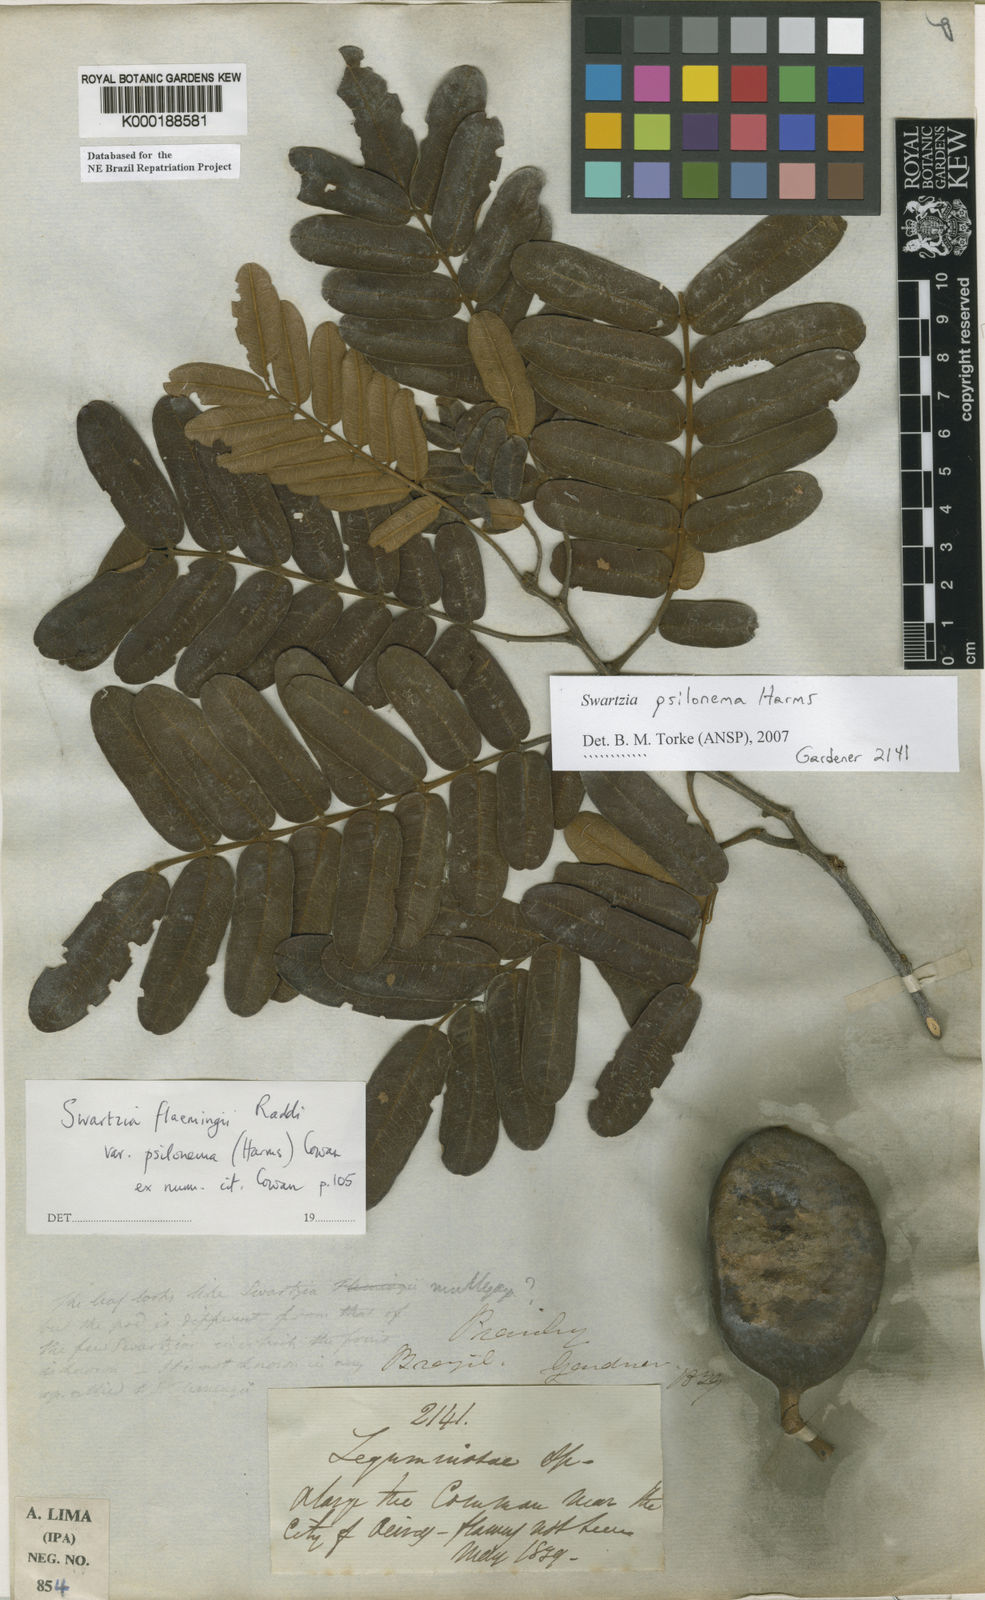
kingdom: Plantae
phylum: Tracheophyta
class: Magnoliopsida
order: Fabales
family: Fabaceae
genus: Swartzia
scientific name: Swartzia flaemingii
